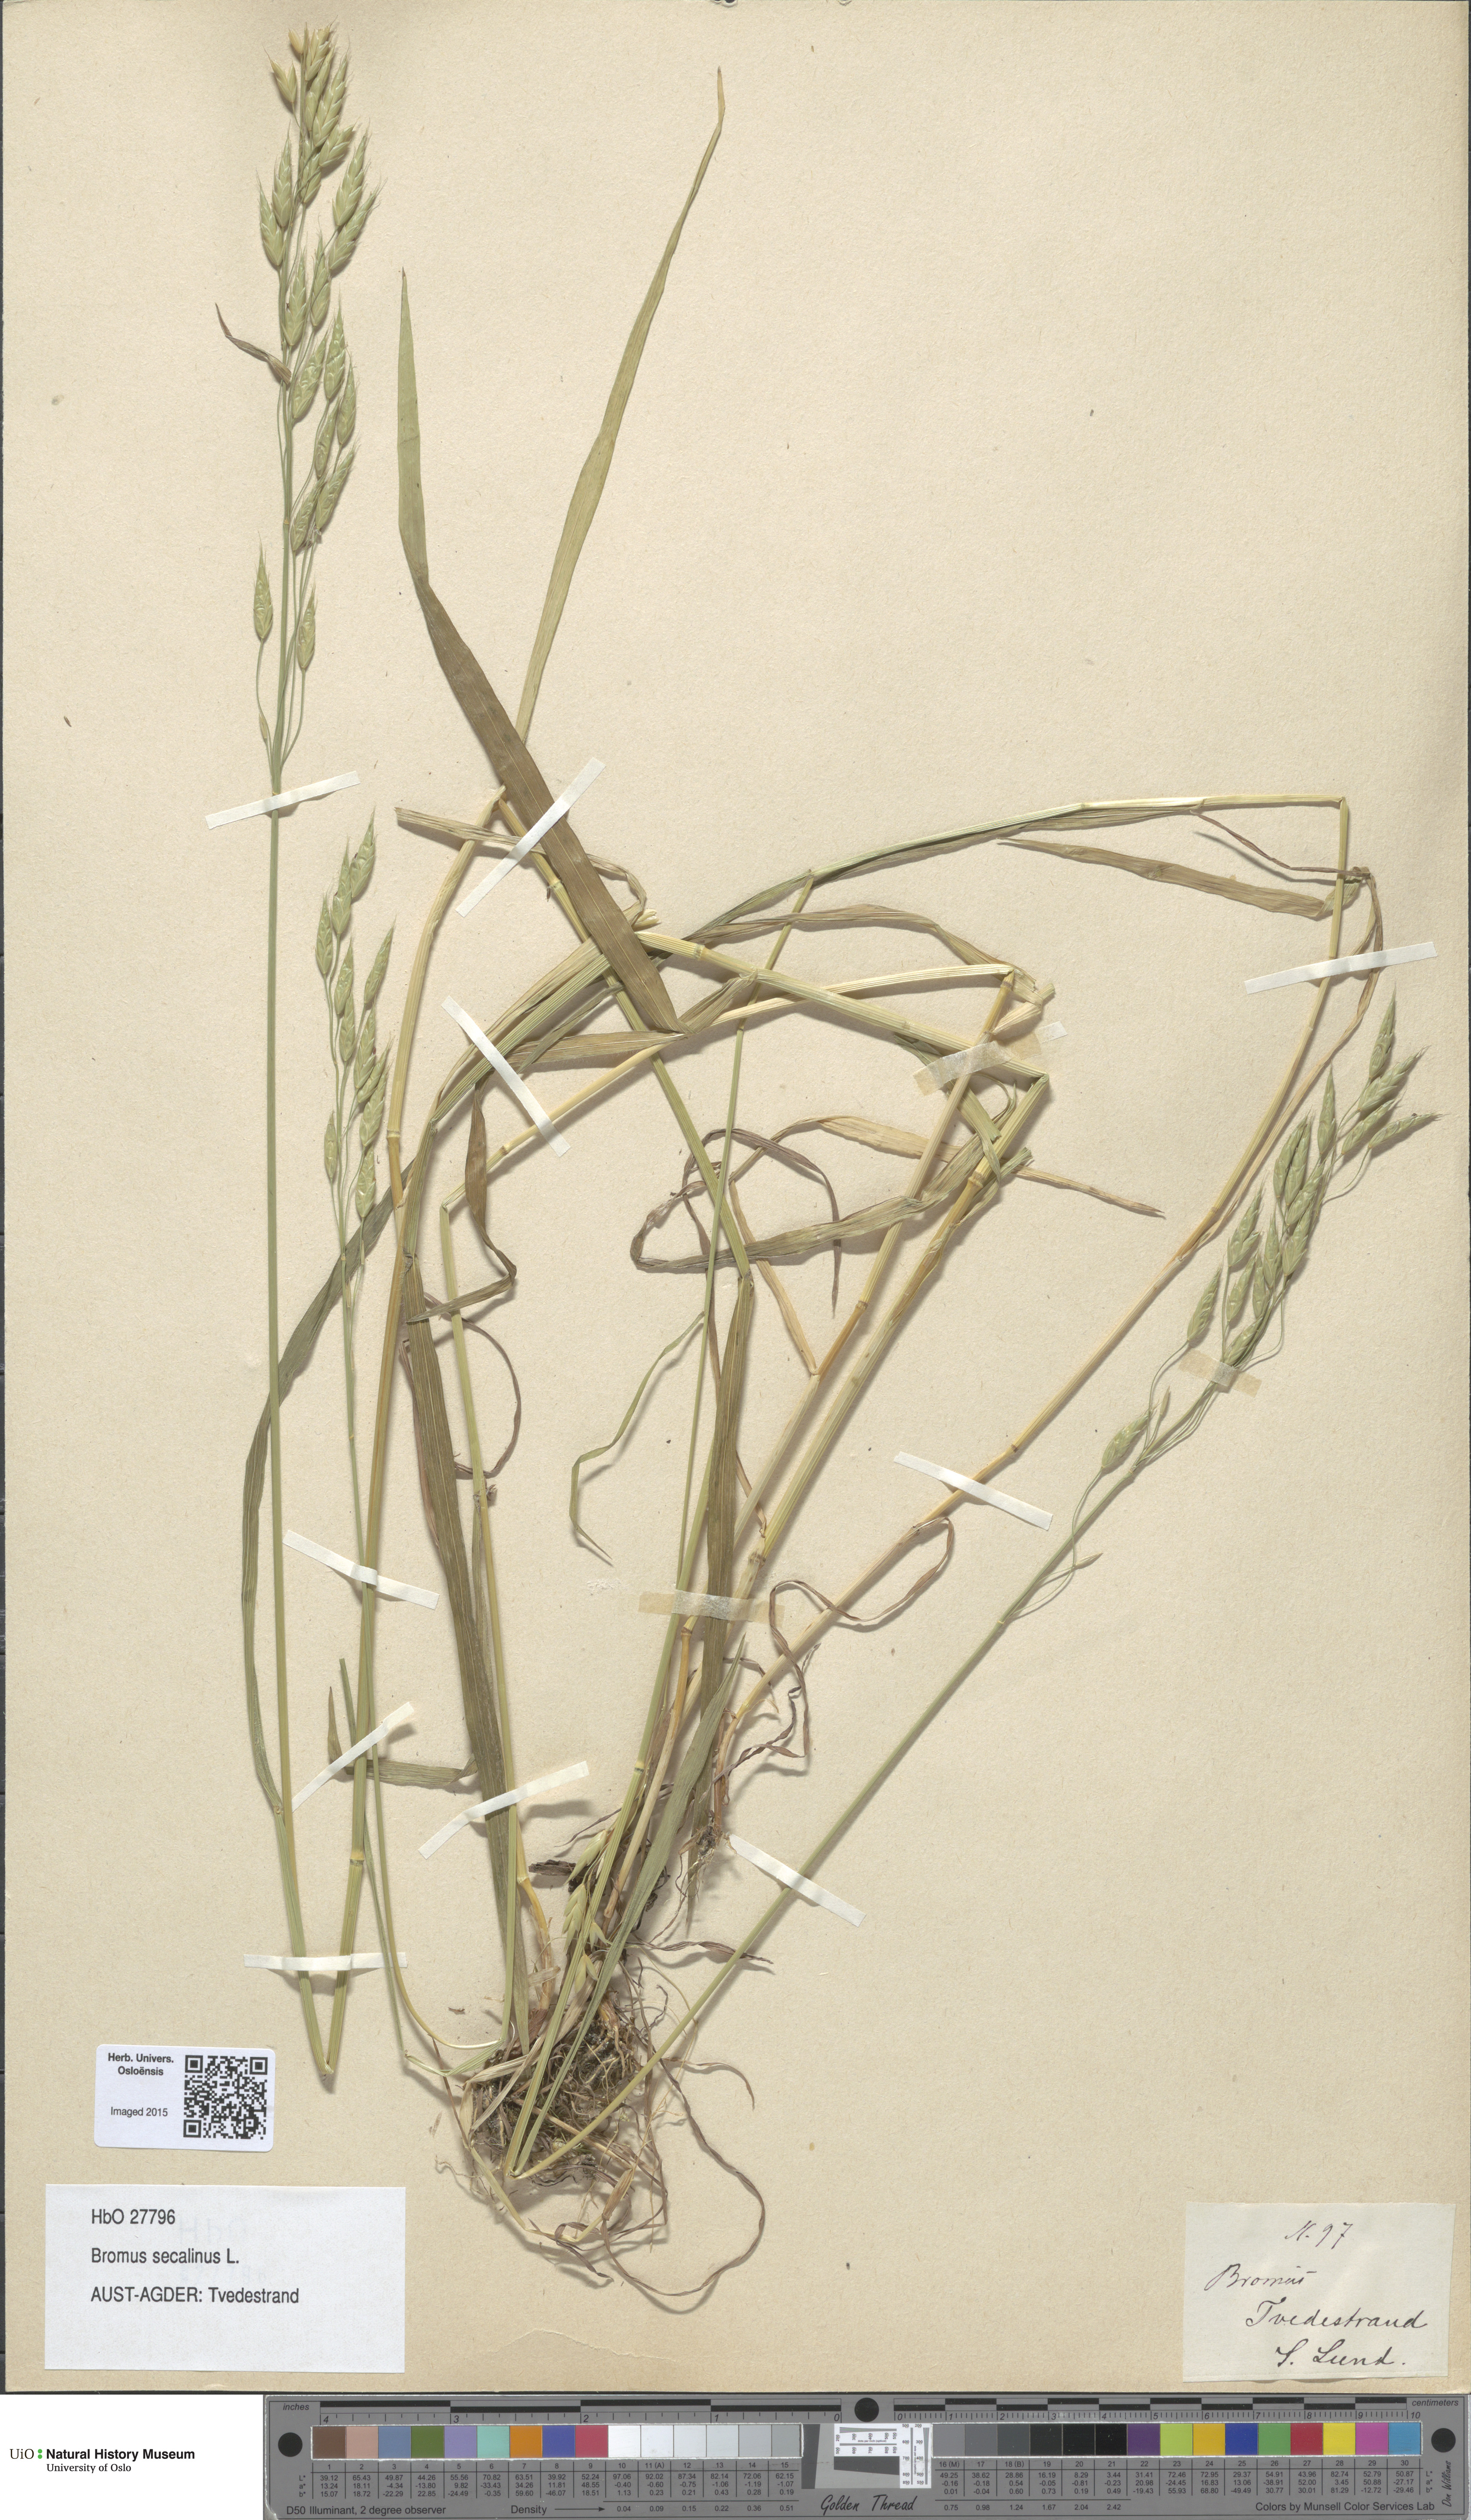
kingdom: Plantae
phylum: Tracheophyta
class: Liliopsida
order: Poales
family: Poaceae
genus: Bromus
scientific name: Bromus secalinus
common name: Rye brome
